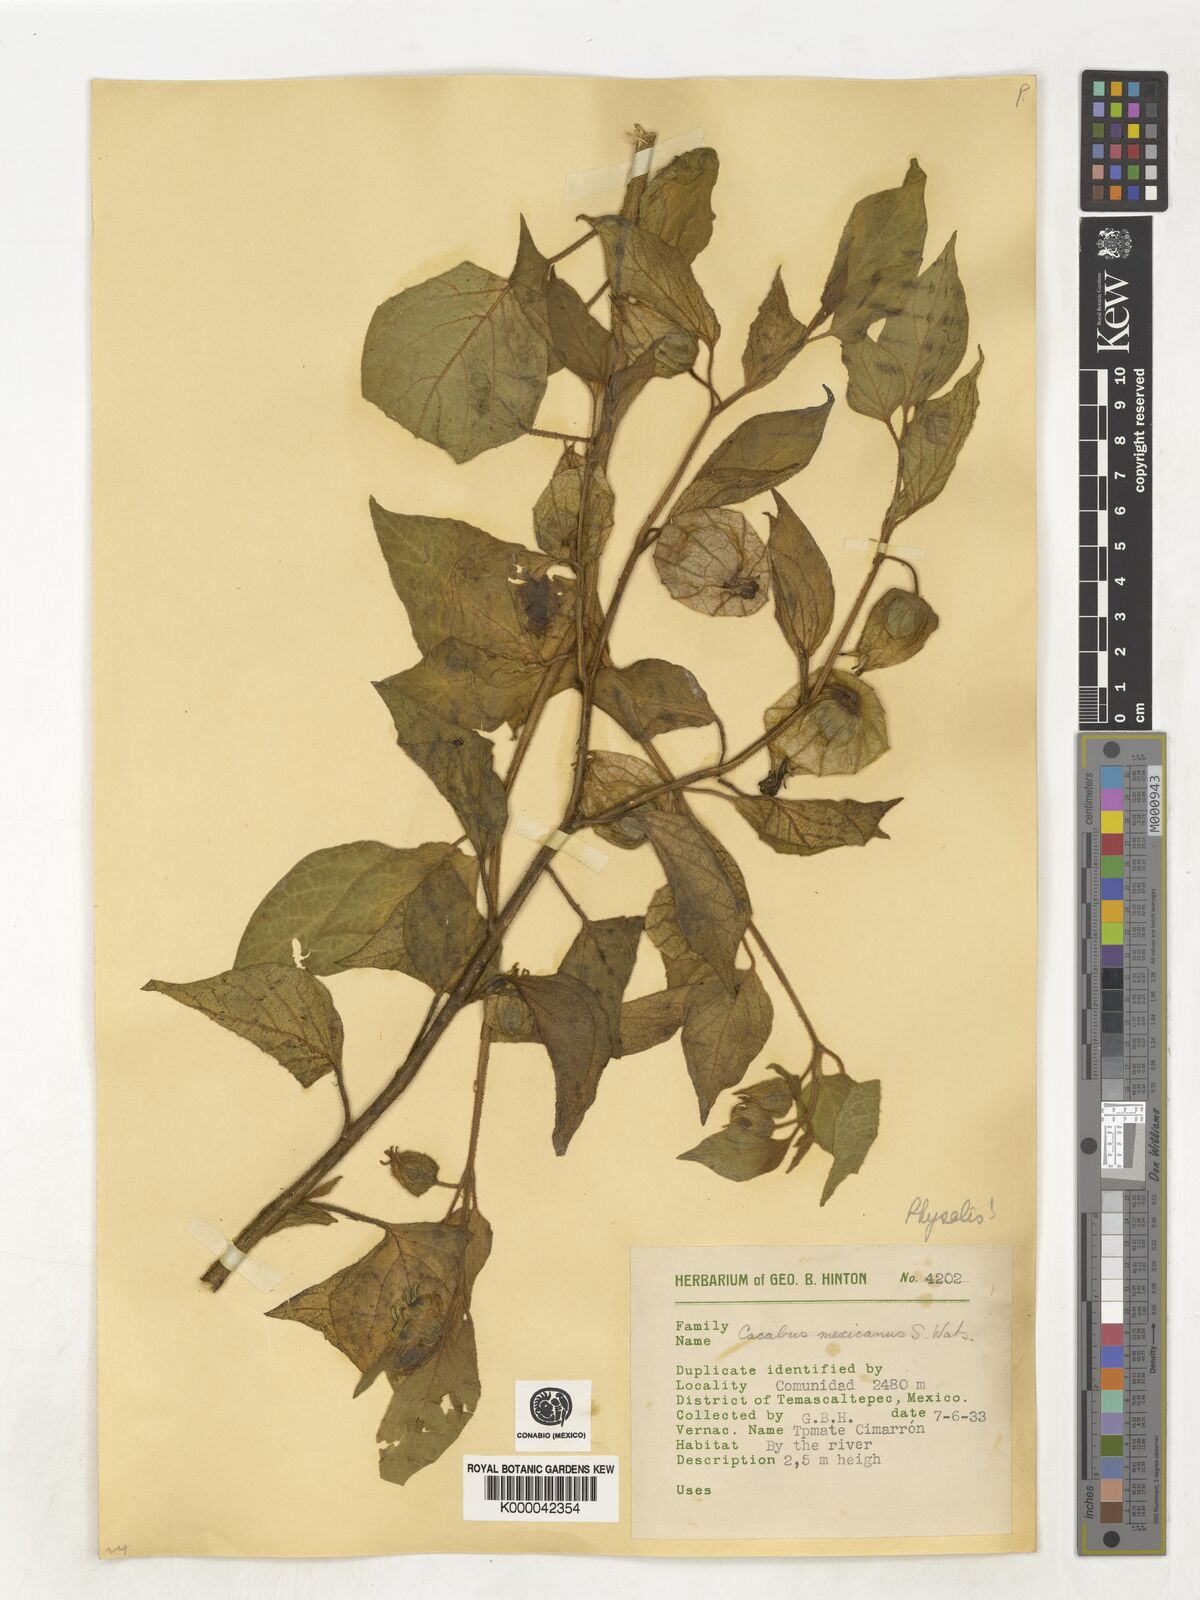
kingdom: Plantae
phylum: Tracheophyta
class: Magnoliopsida
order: Solanales
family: Solanaceae
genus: Physalis
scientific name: Physalis
